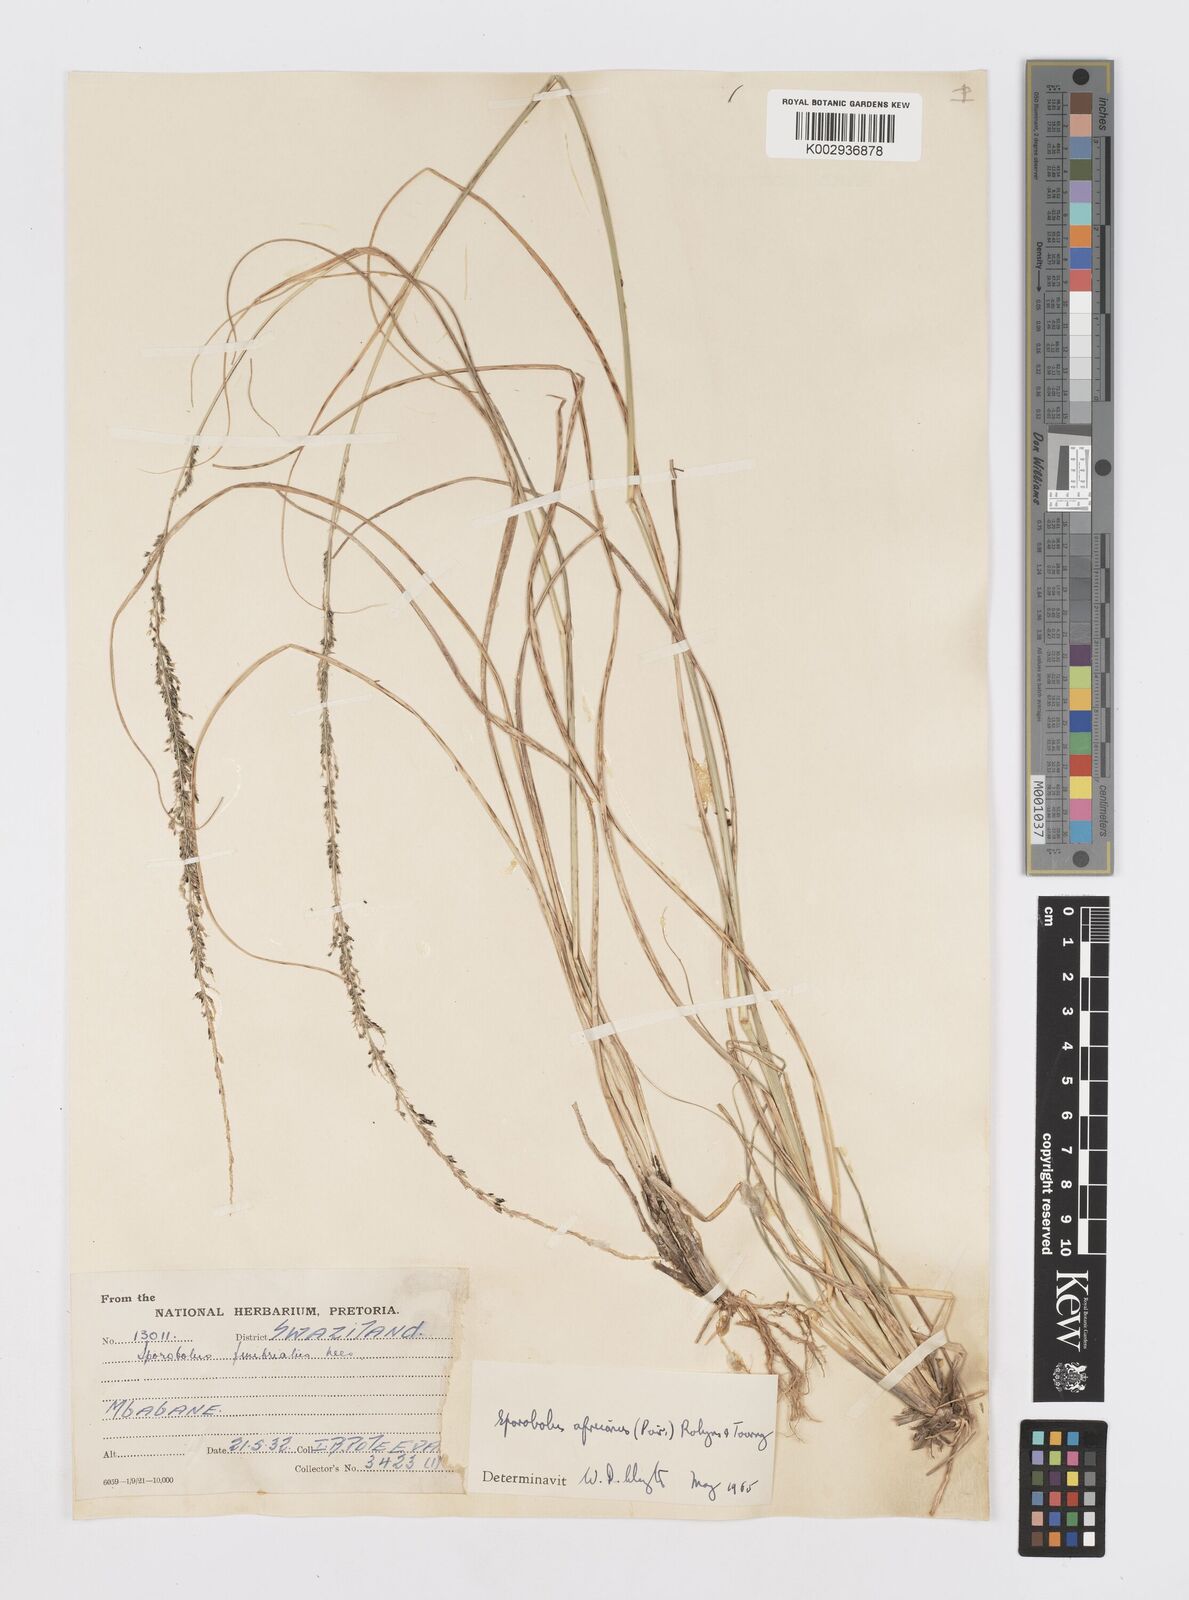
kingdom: Plantae
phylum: Tracheophyta
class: Liliopsida
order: Poales
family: Poaceae
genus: Sporobolus
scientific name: Sporobolus africanus
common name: African dropseed
